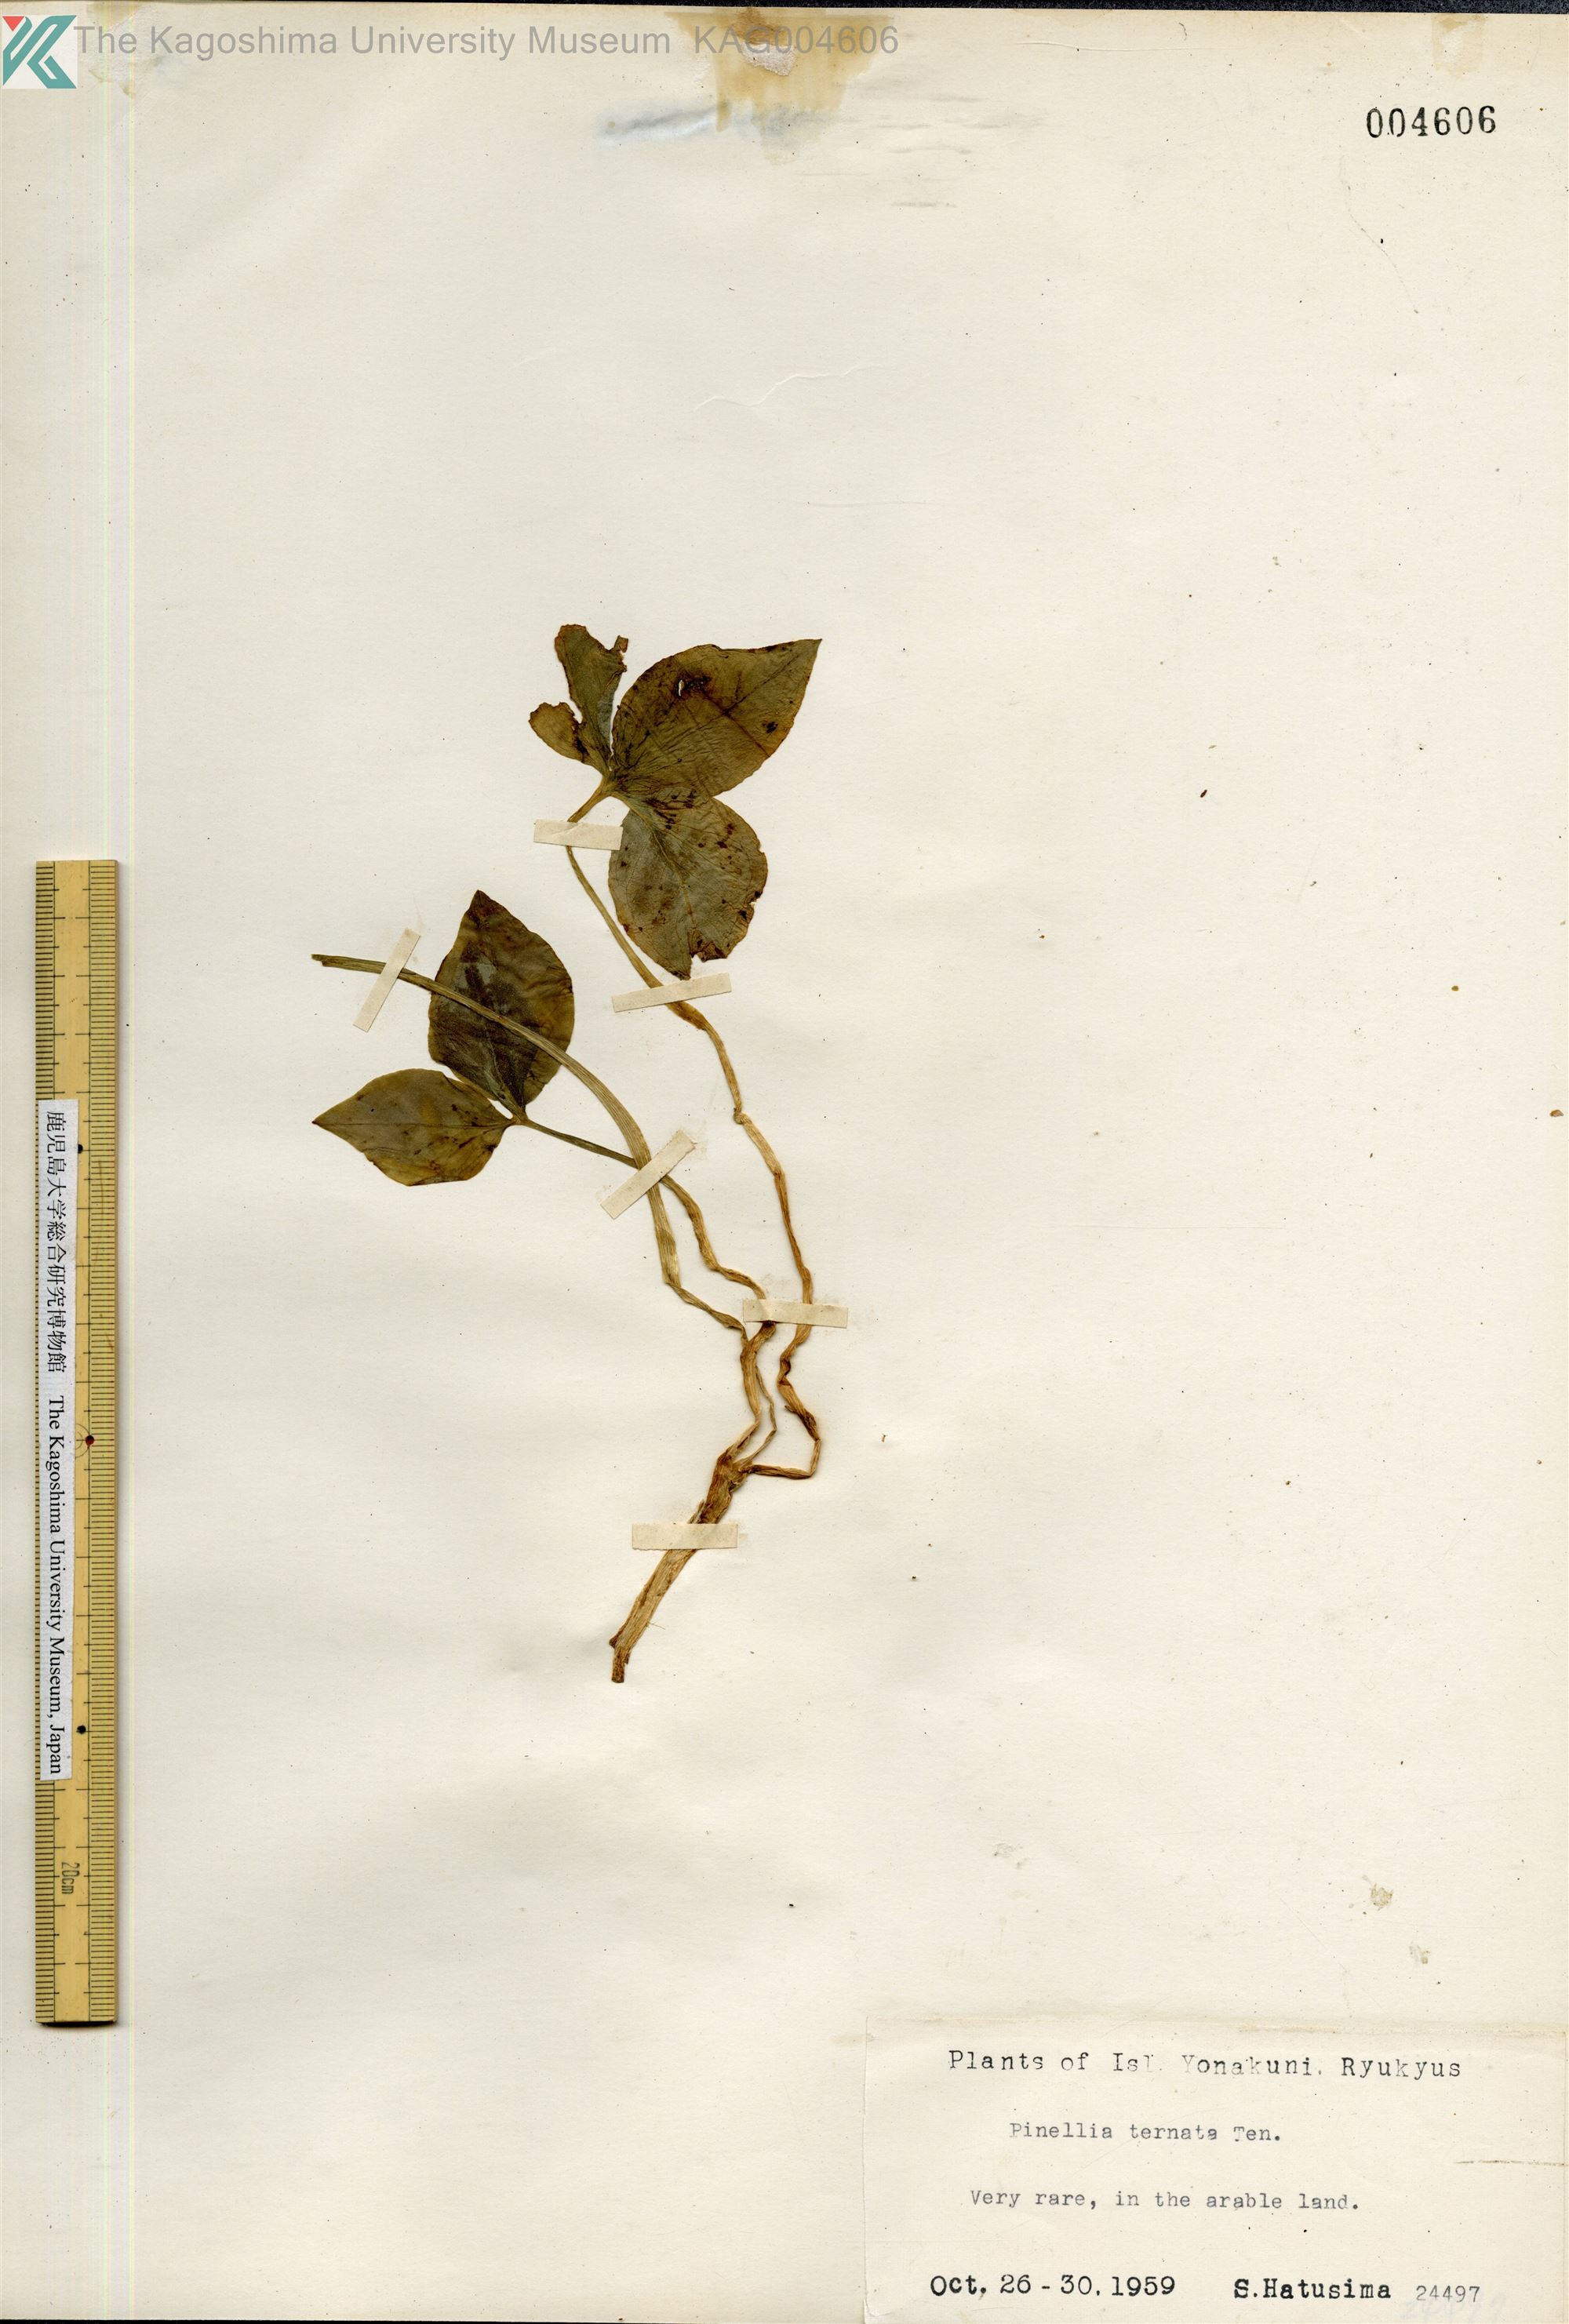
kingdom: Plantae
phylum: Tracheophyta
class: Liliopsida
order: Alismatales
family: Araceae
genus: Pinellia
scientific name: Pinellia ternata
